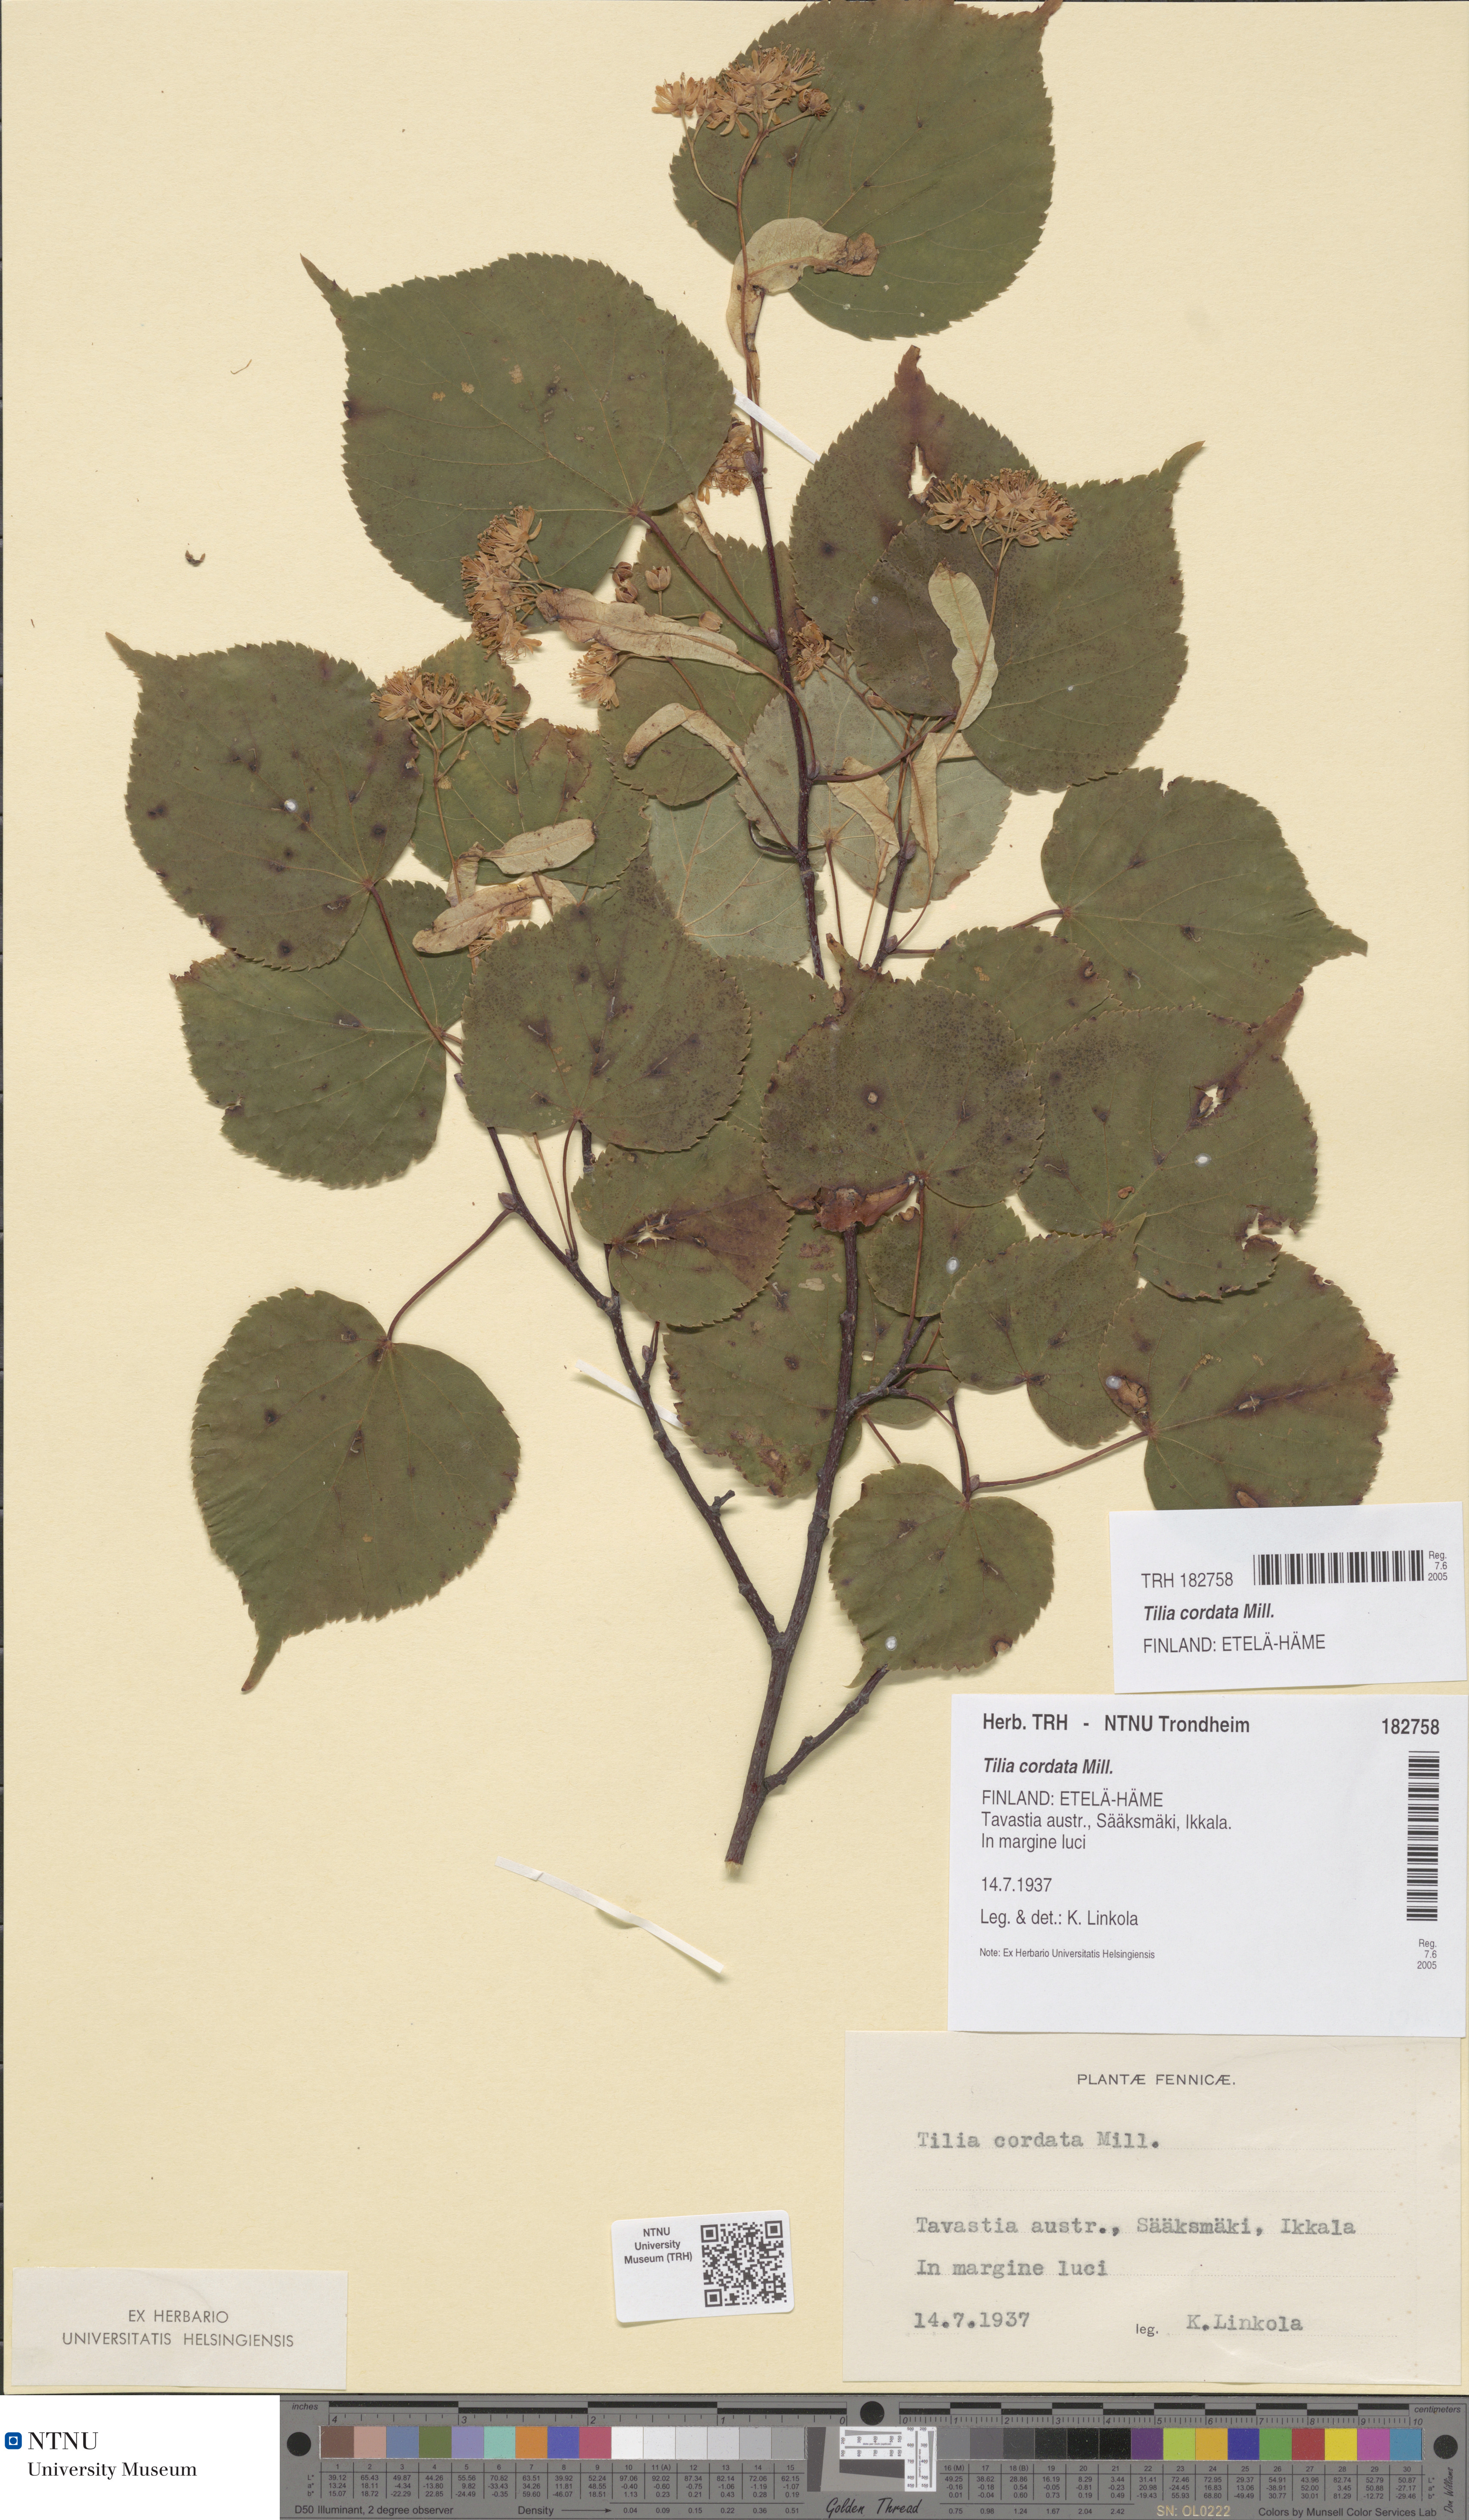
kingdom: Plantae
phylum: Tracheophyta
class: Magnoliopsida
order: Malvales
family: Malvaceae
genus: Tilia
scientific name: Tilia cordata
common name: Small-leaved lime
